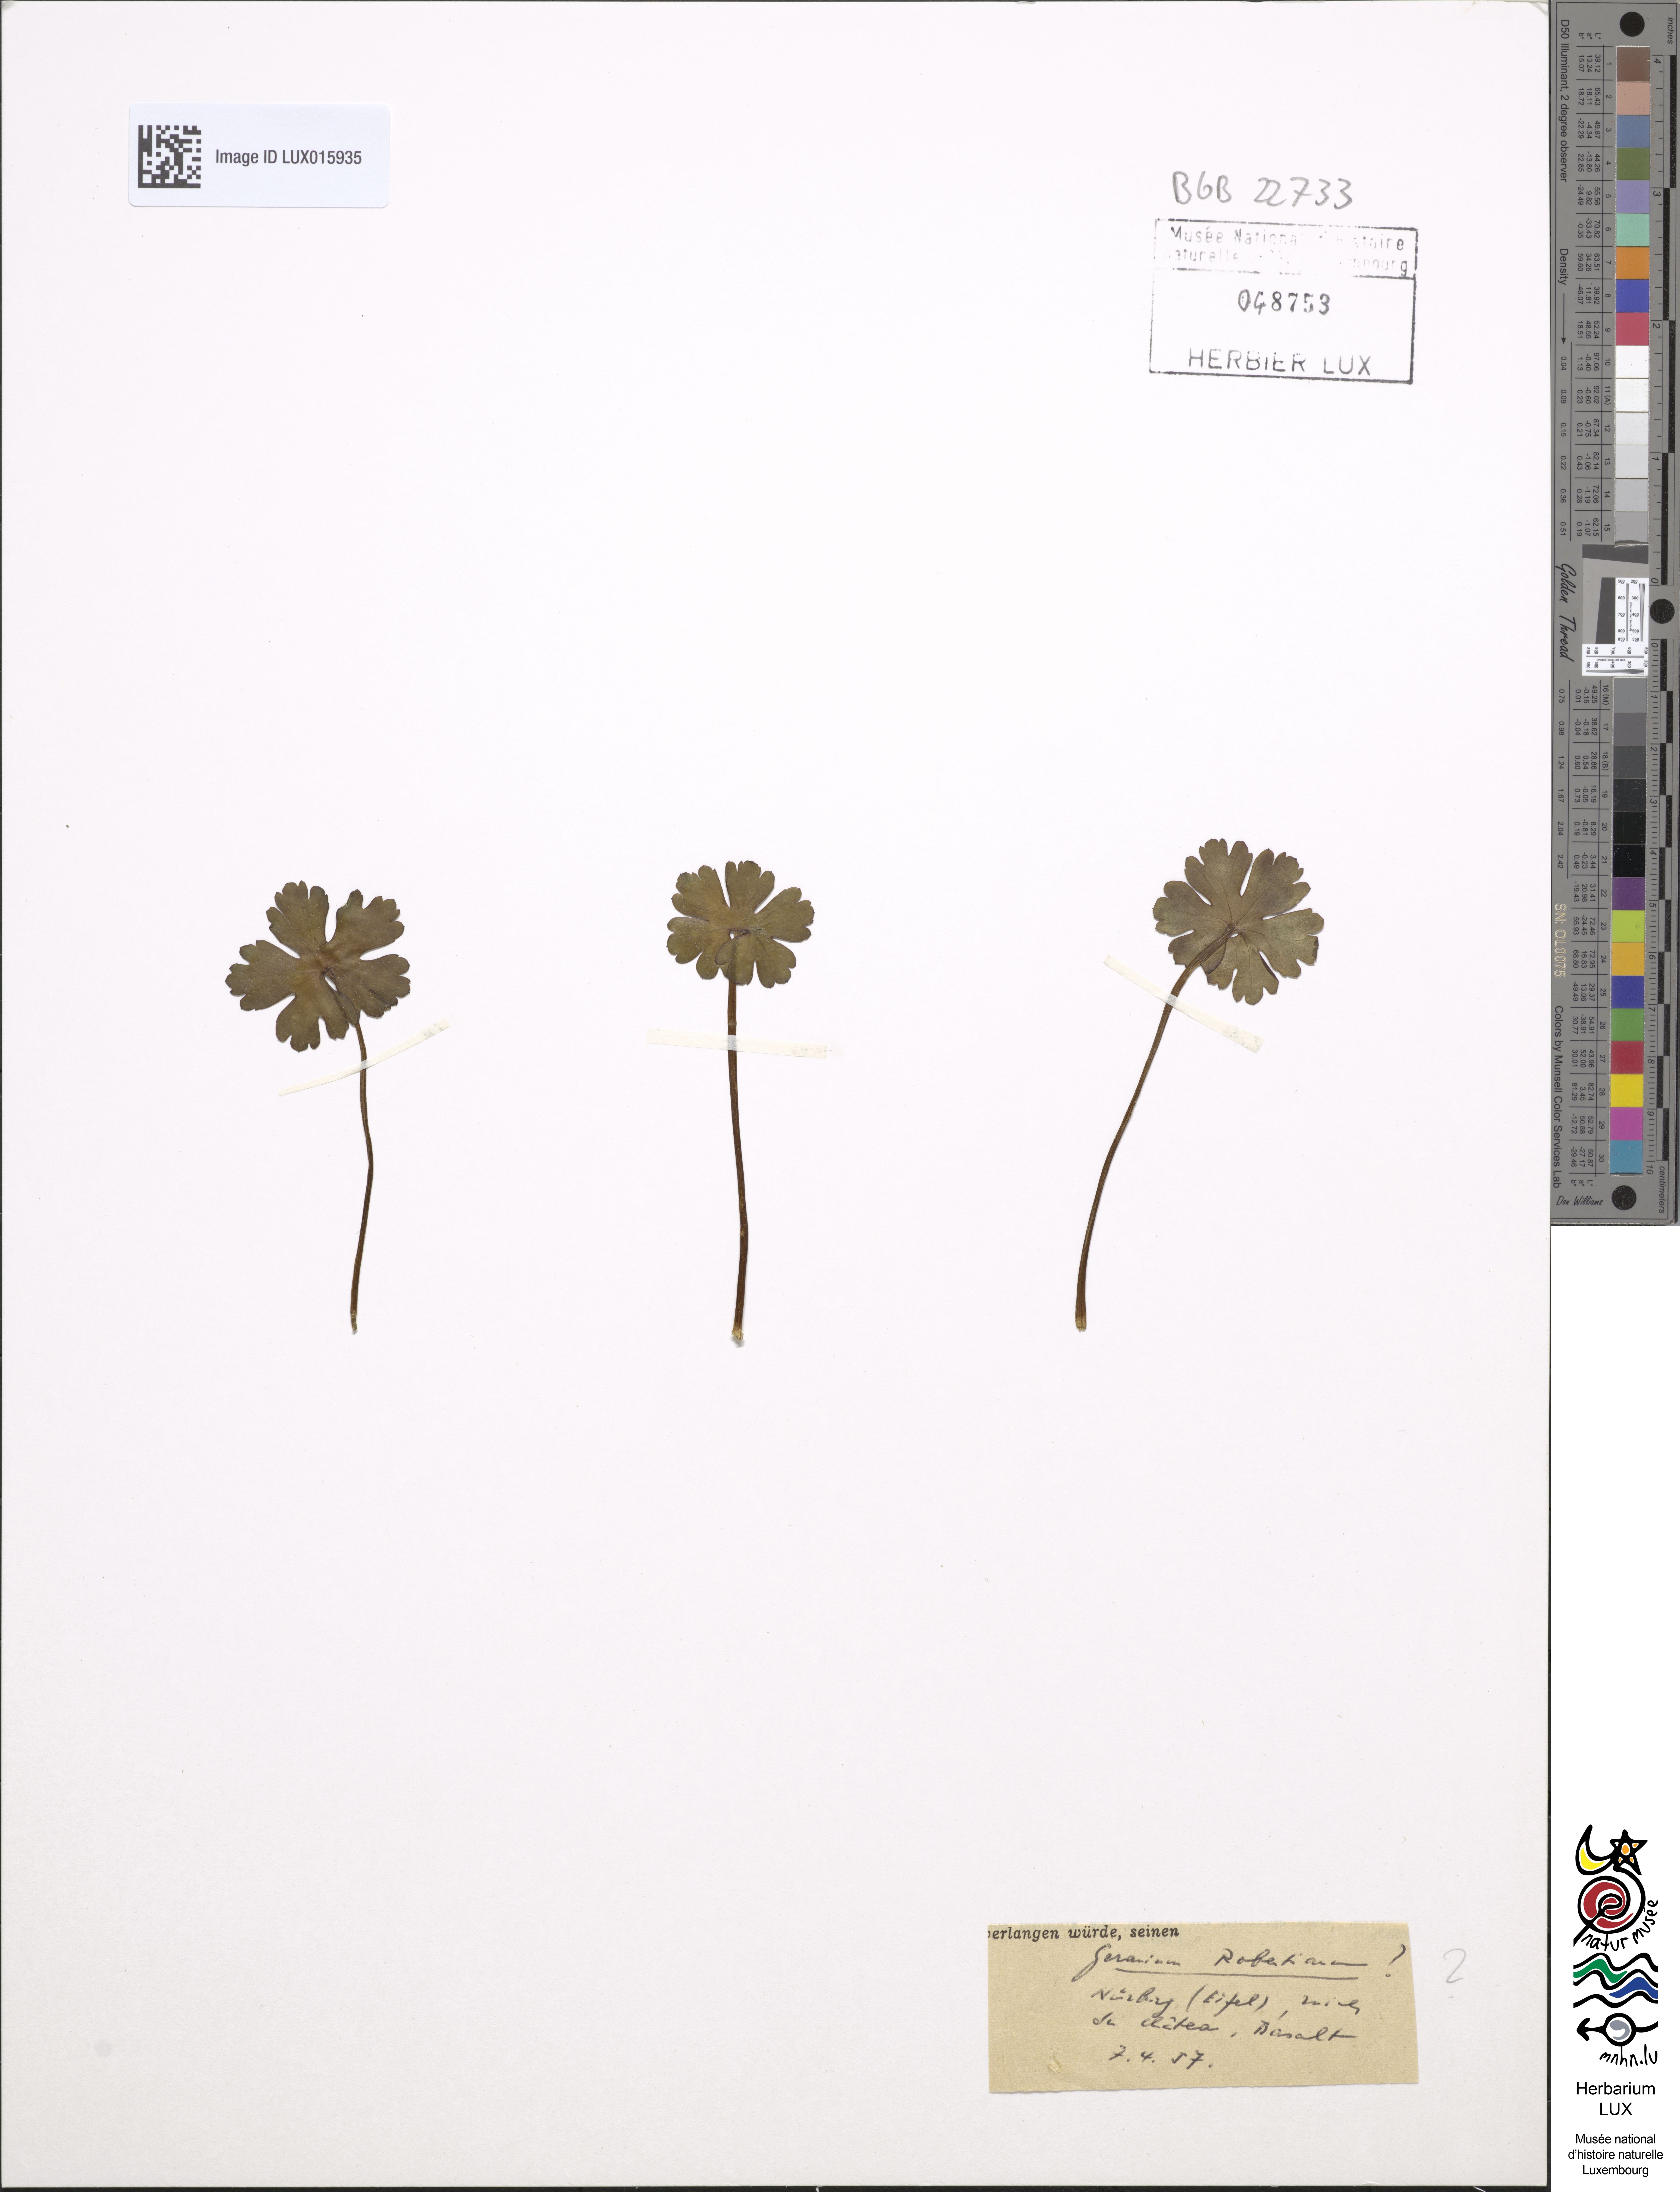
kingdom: Plantae
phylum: Tracheophyta
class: Magnoliopsida
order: Geraniales
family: Geraniaceae
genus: Geranium
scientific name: Geranium robertianum
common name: Herb-robert
